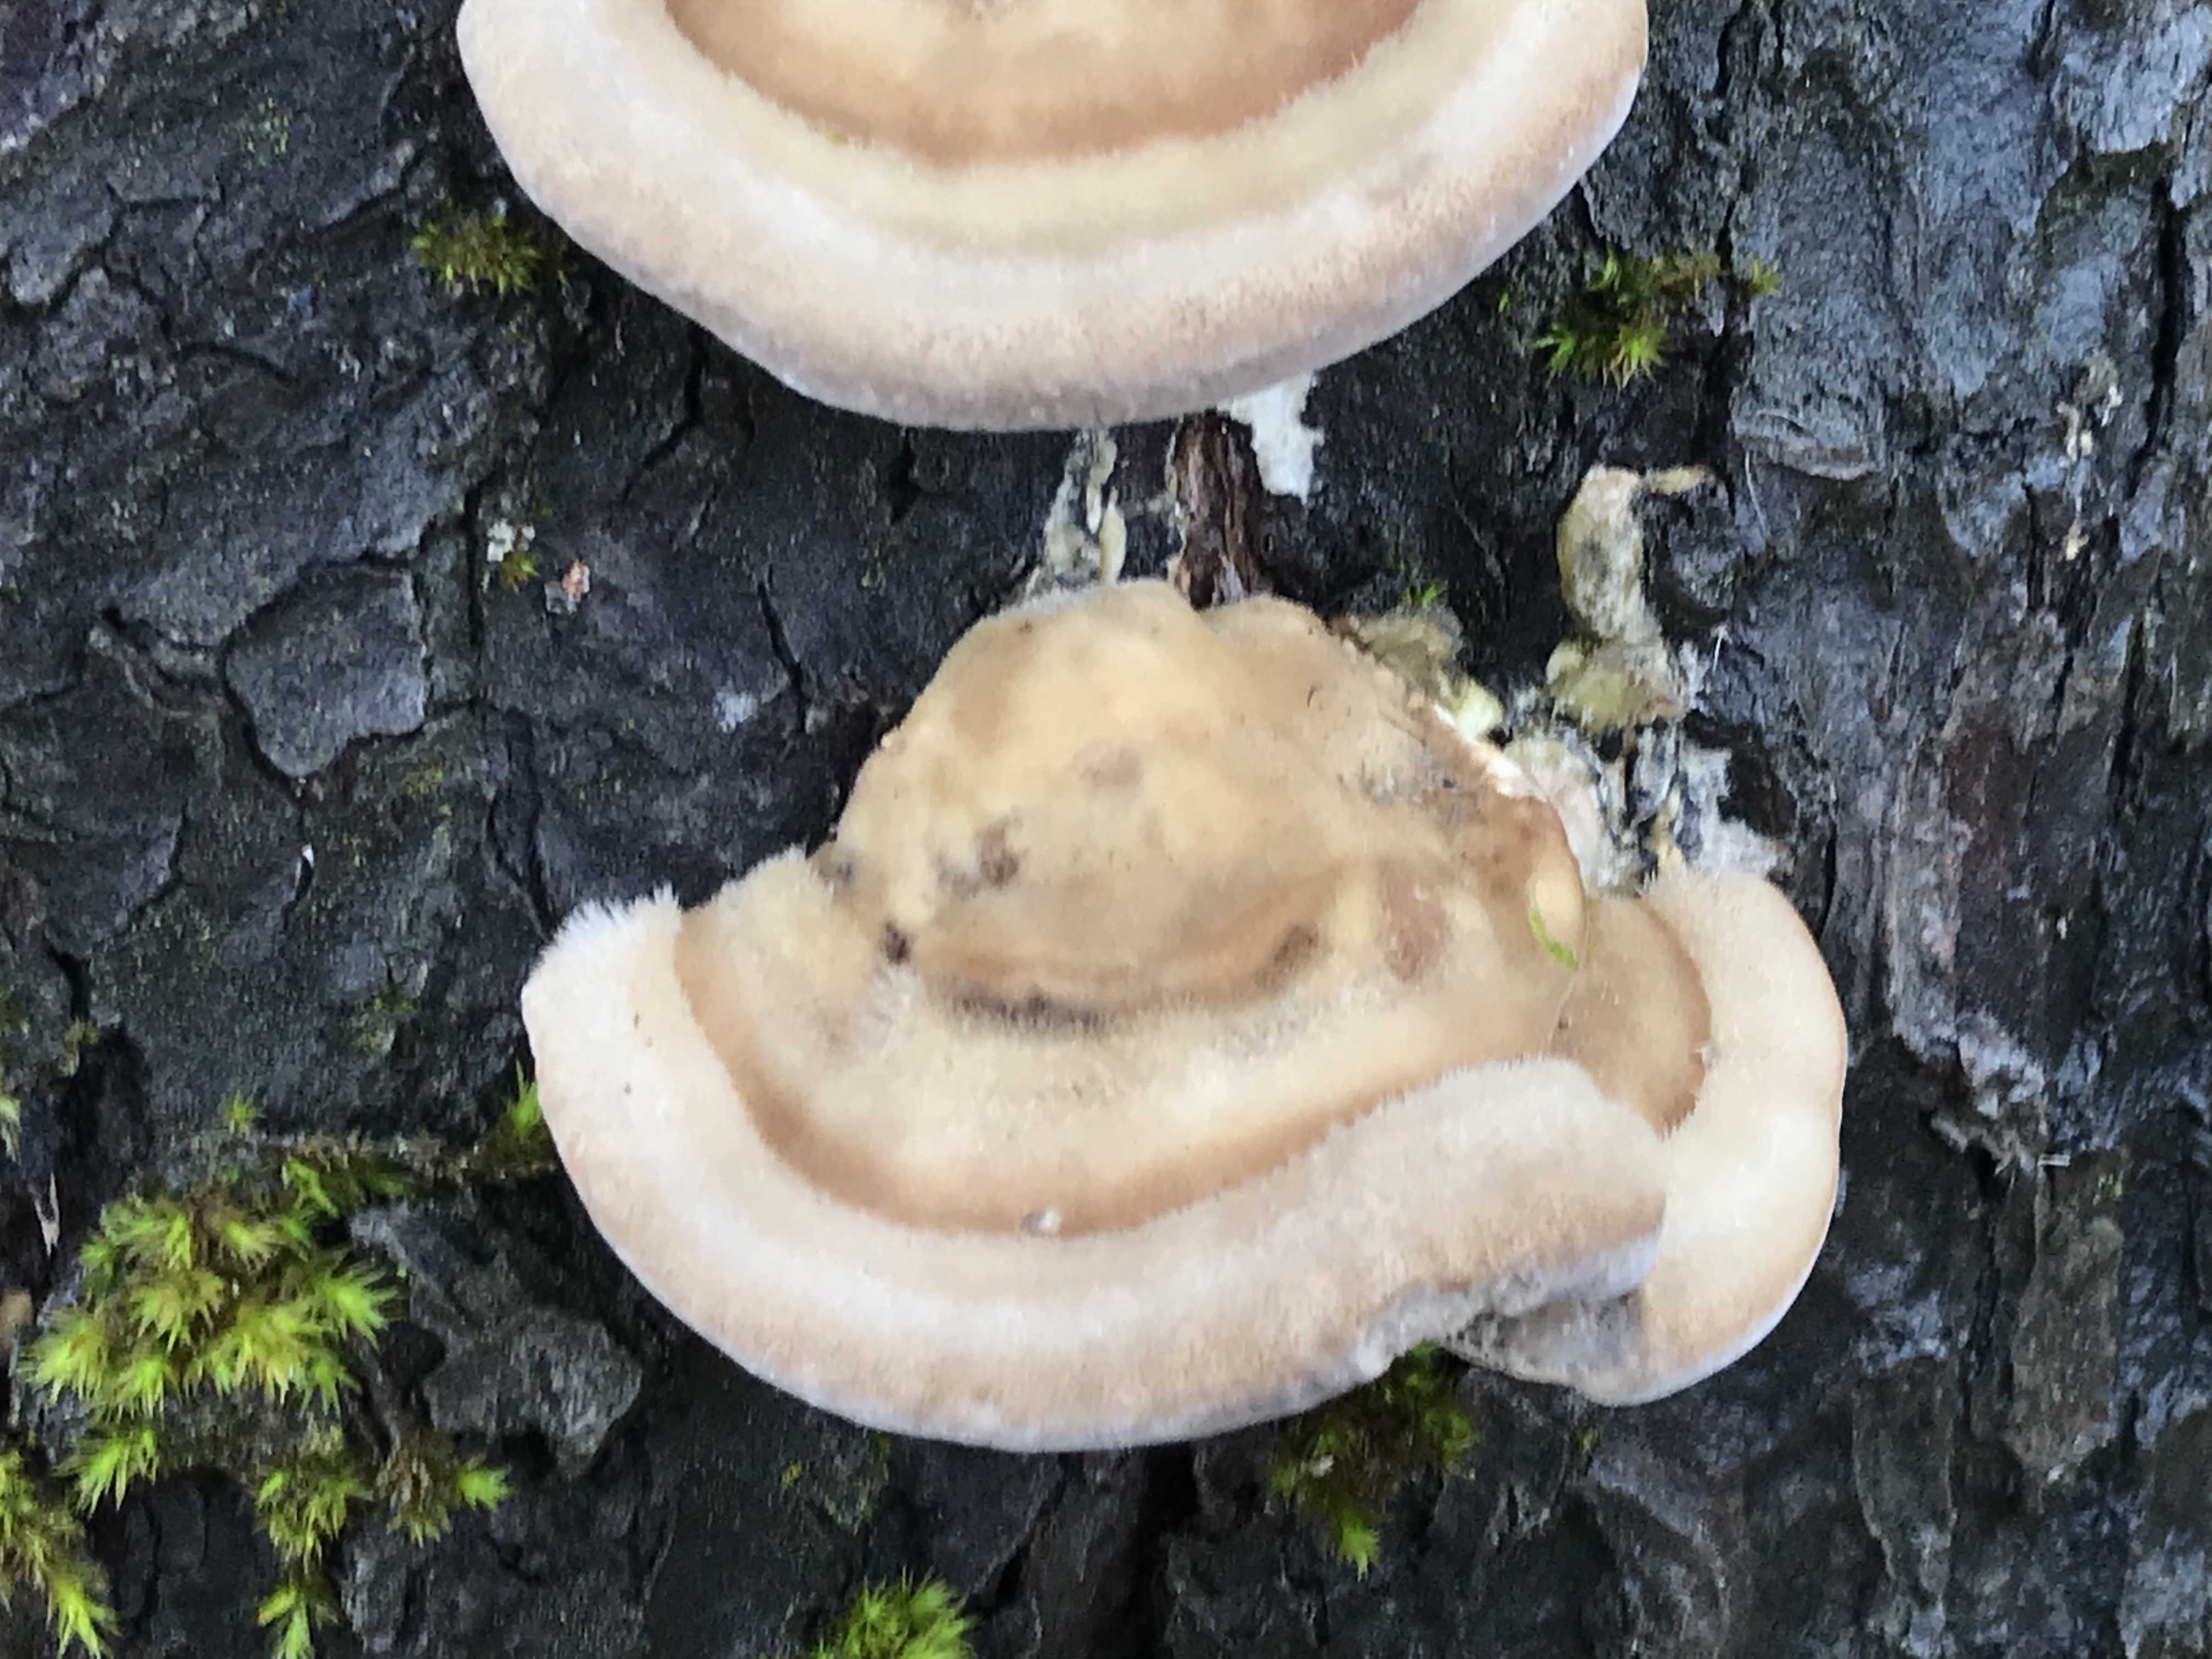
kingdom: Fungi
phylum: Basidiomycota
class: Agaricomycetes
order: Polyporales
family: Phanerochaetaceae
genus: Bjerkandera
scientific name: Bjerkandera adusta
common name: sveden sodporesvamp
